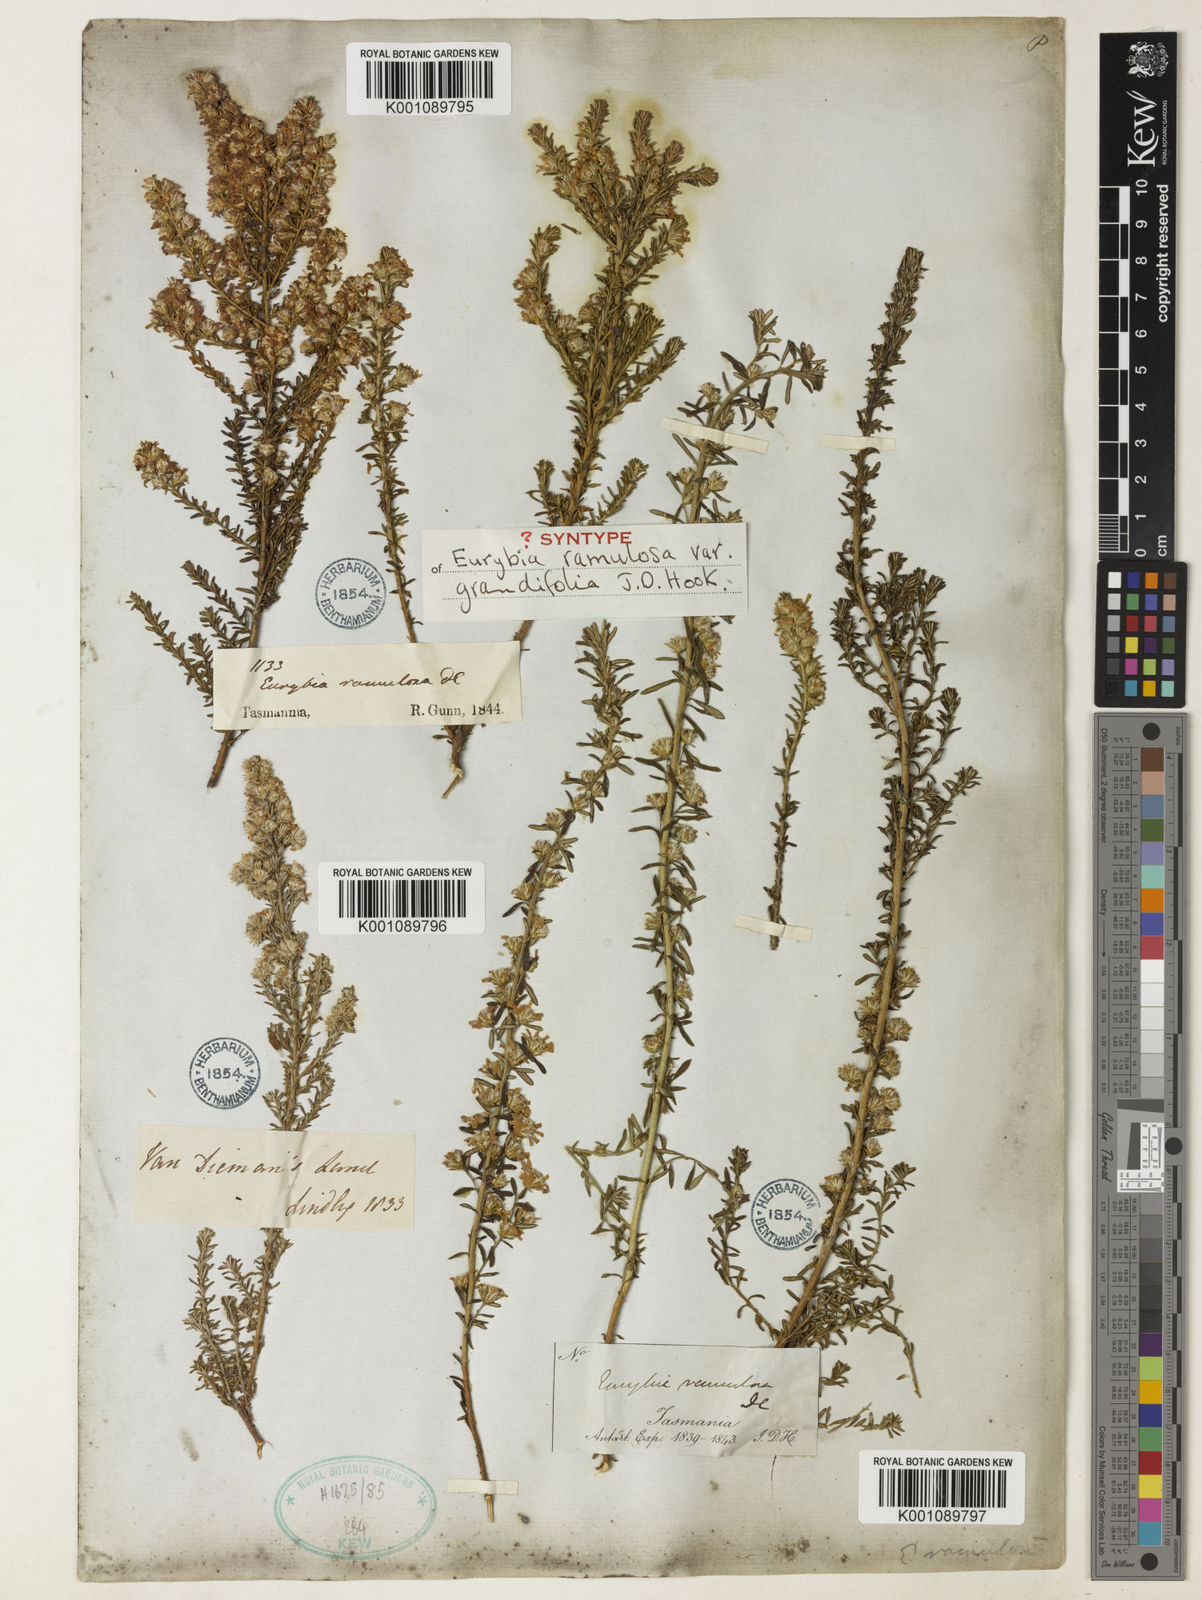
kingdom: Plantae
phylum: Tracheophyta
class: Magnoliopsida
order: Asterales
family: Asteraceae
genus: Olearia
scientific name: Olearia ramulosa
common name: Twiggy daisybush
